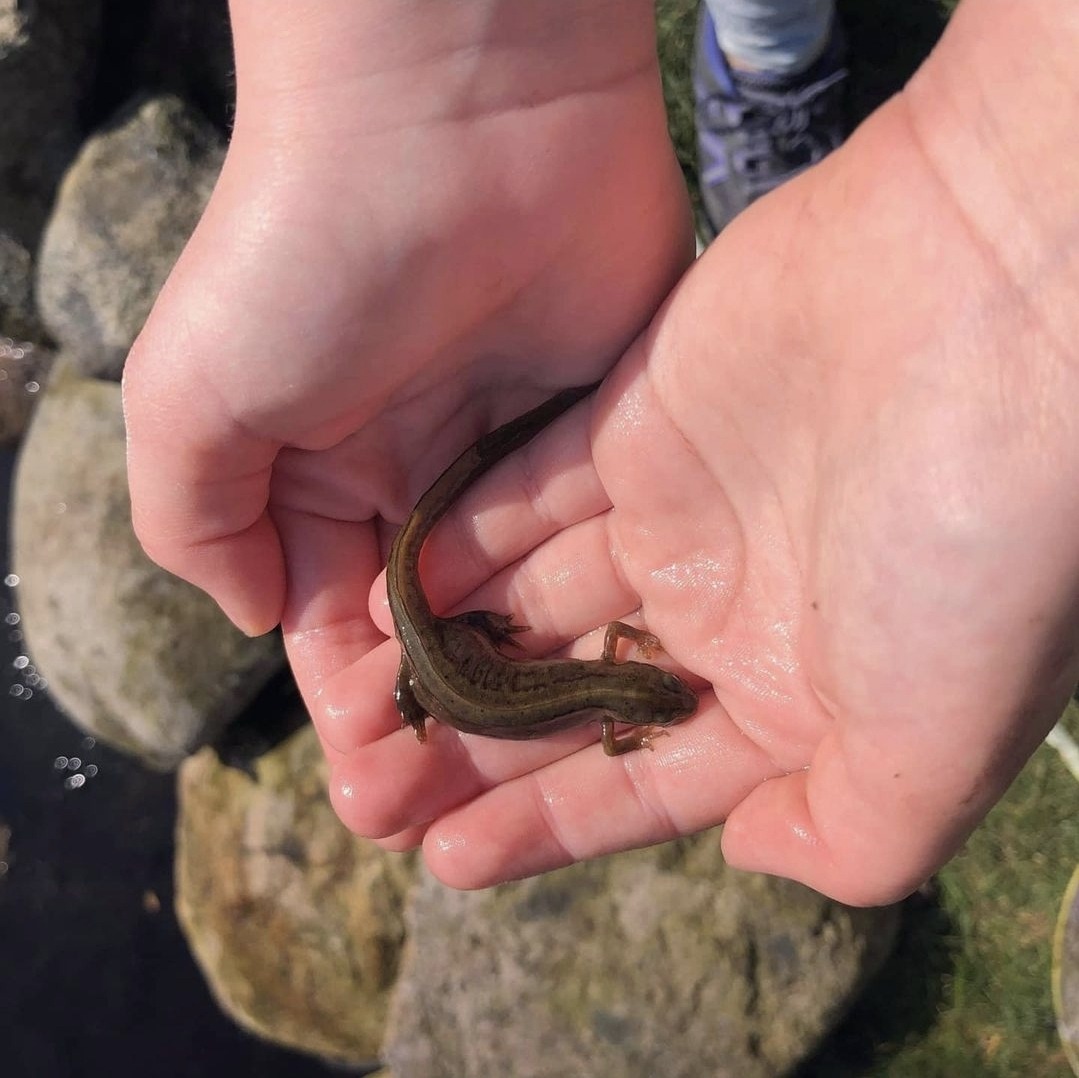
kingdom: Animalia
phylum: Chordata
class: Amphibia
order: Caudata
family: Salamandridae
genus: Lissotriton
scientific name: Lissotriton vulgaris
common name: Lille vandsalamander
